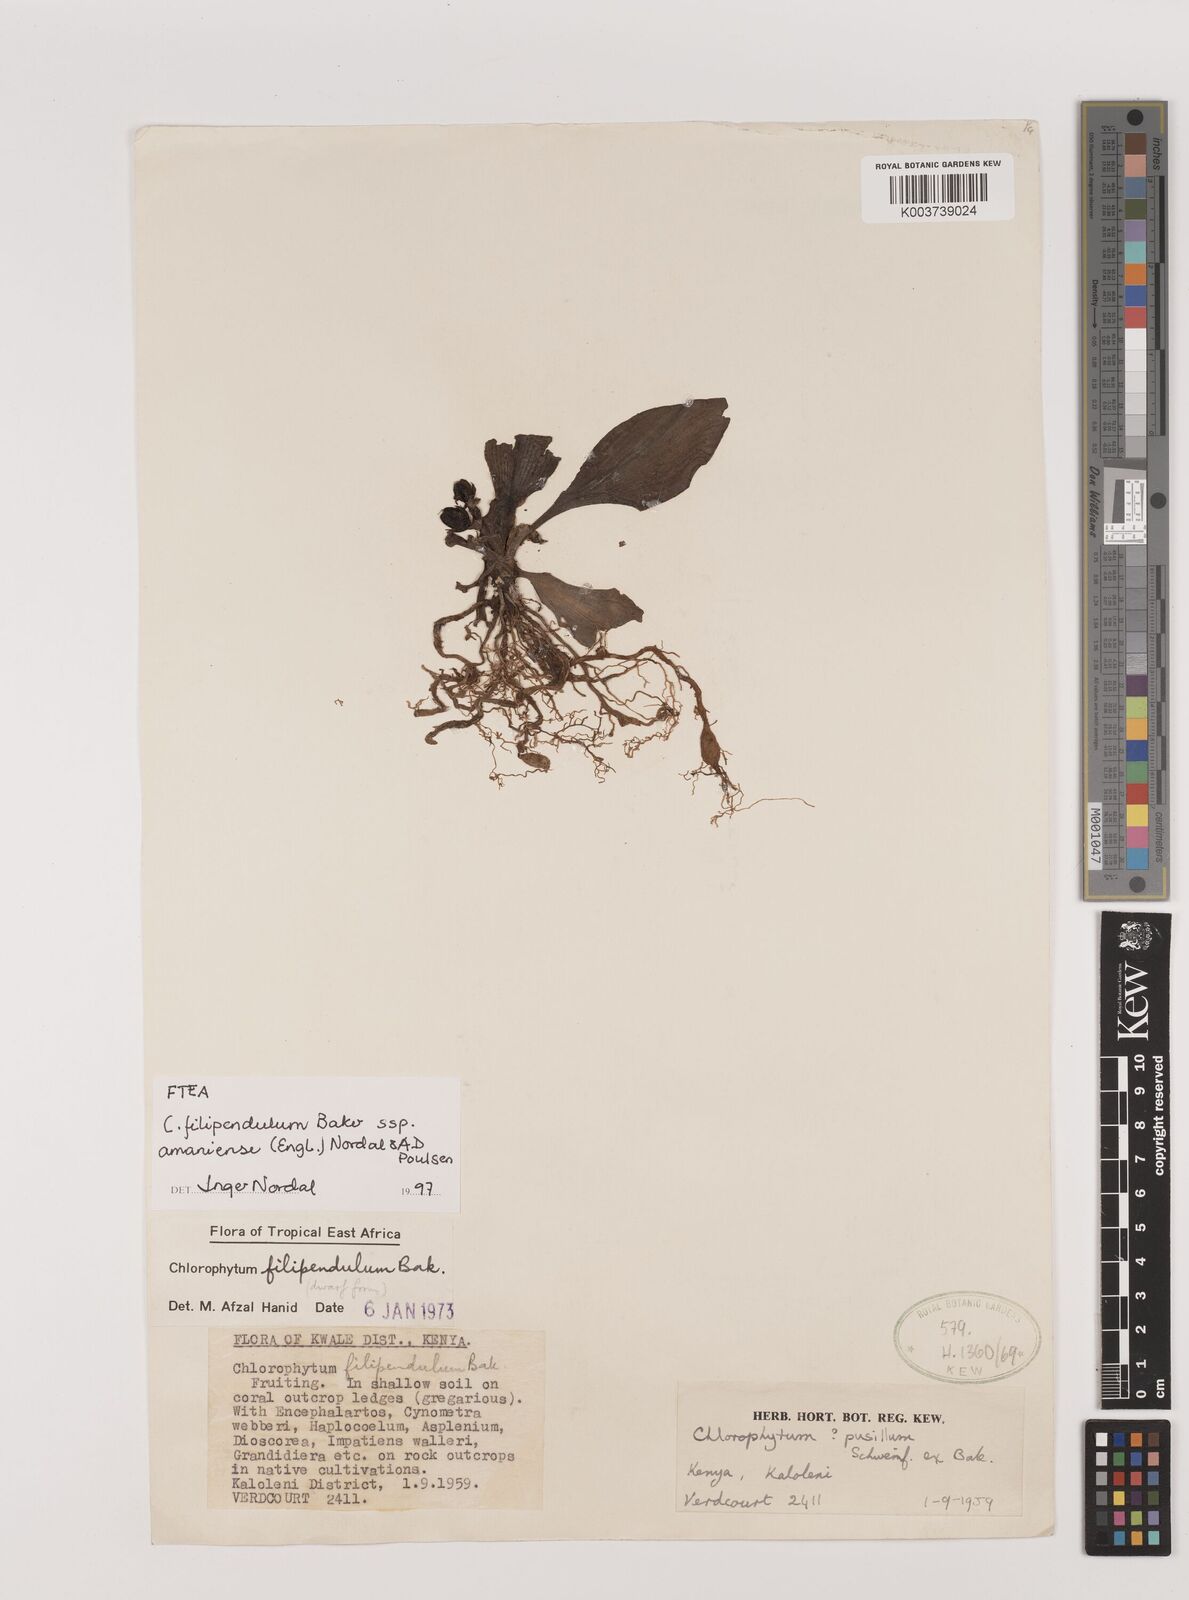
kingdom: Plantae
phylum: Tracheophyta
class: Liliopsida
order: Asparagales
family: Asparagaceae
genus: Chlorophytum
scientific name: Chlorophytum filipendulum
